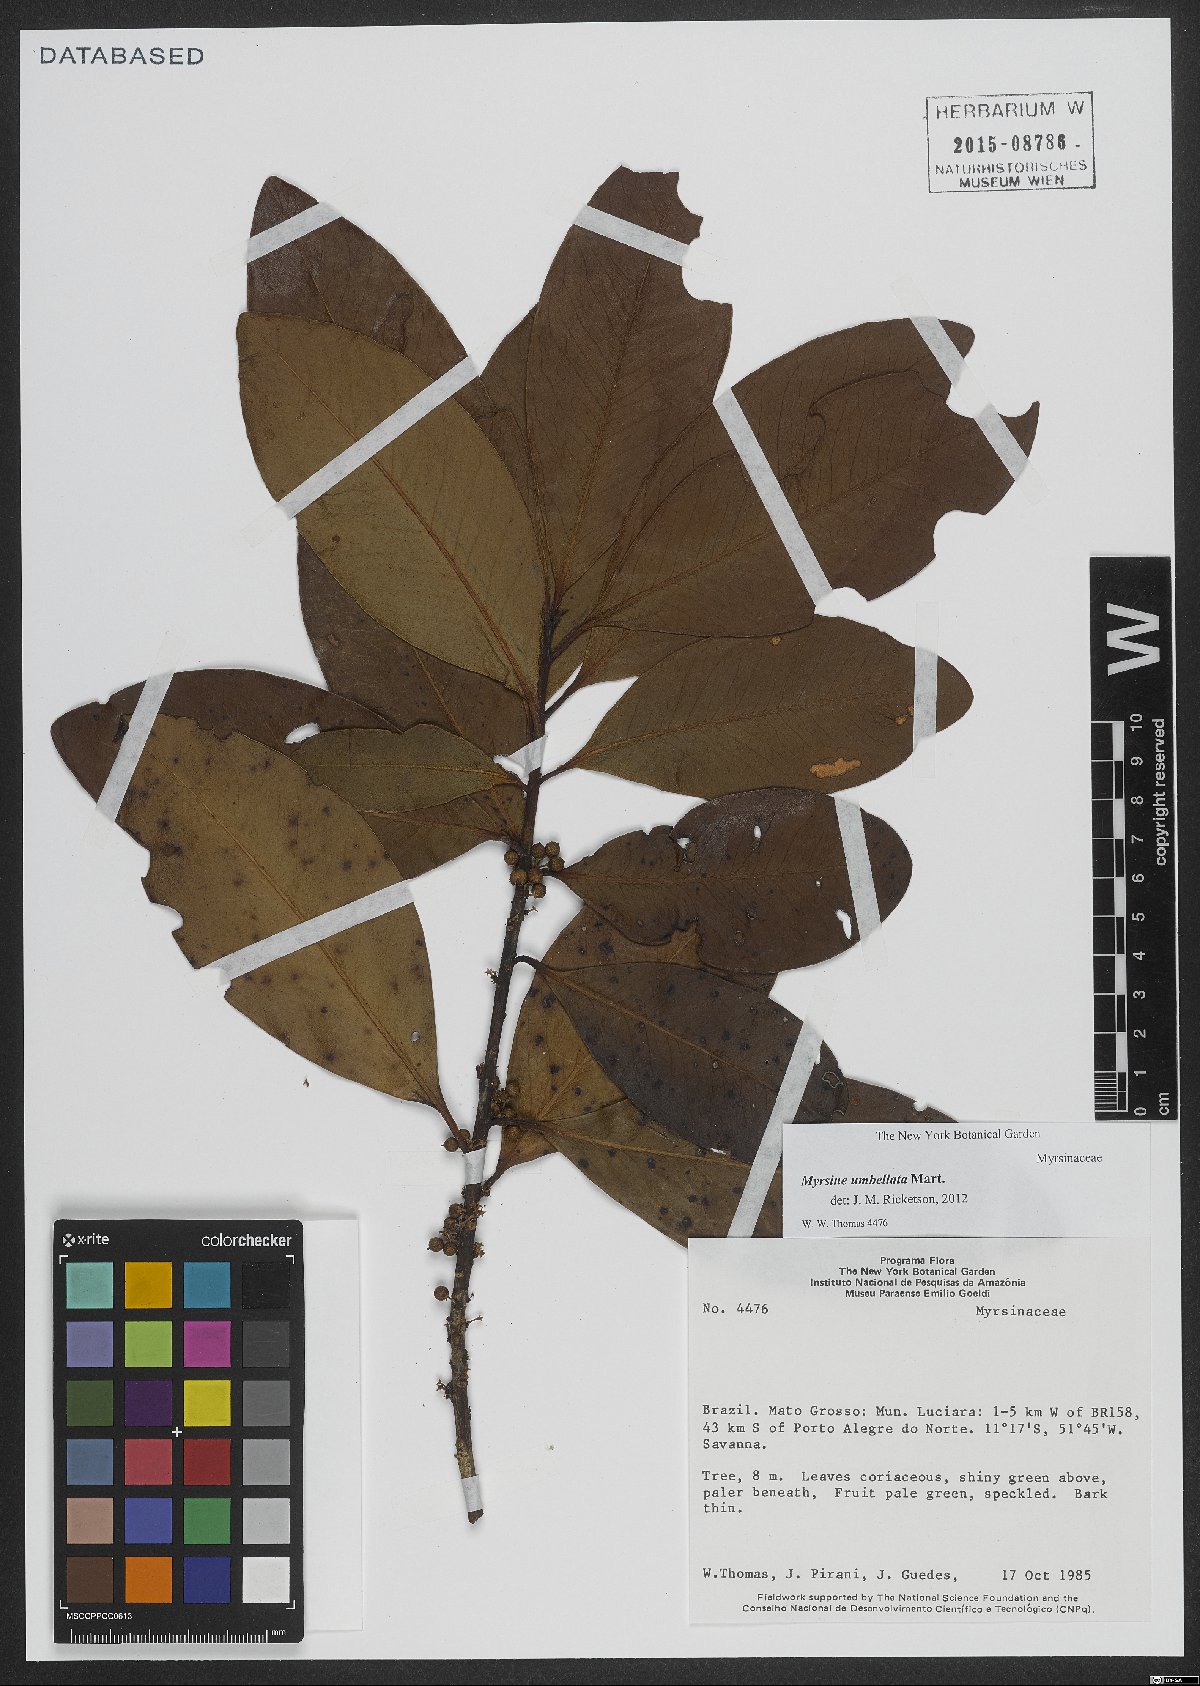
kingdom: Plantae
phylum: Tracheophyta
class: Magnoliopsida
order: Ericales
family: Primulaceae
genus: Myrsine
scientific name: Myrsine umbellata
